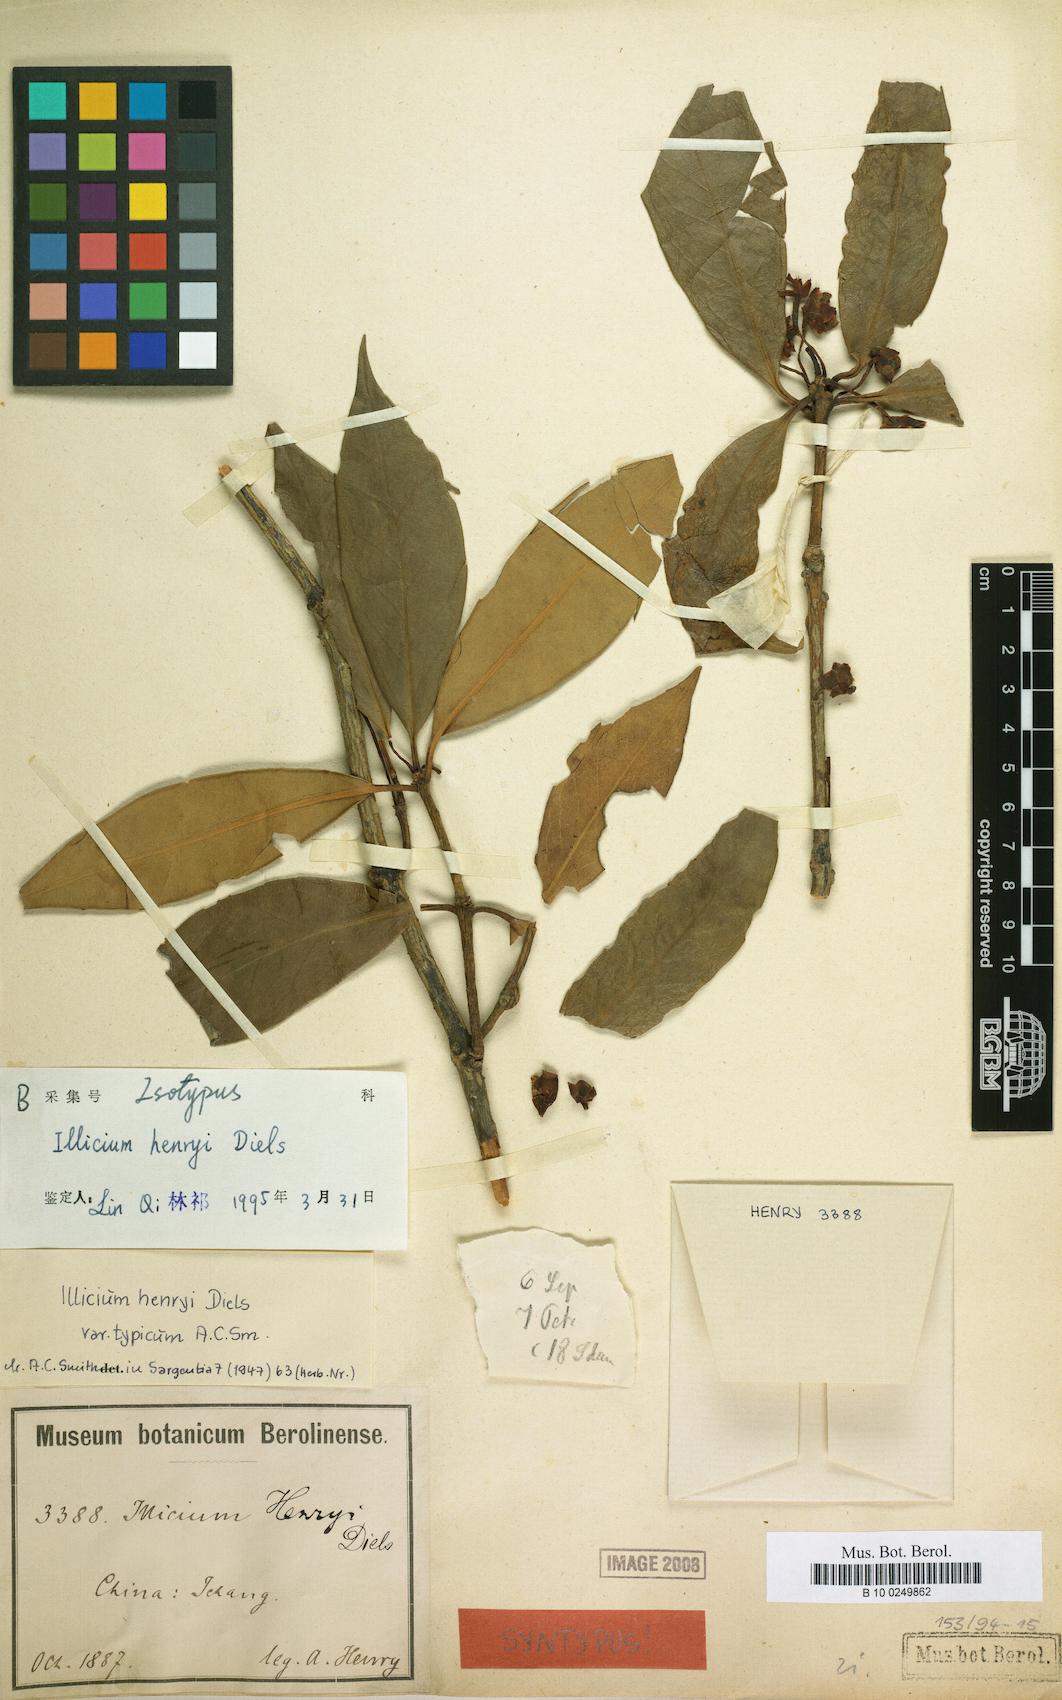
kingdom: Plantae
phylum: Tracheophyta
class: Magnoliopsida
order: Austrobaileyales
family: Schisandraceae
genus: Illicium
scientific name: Illicium henryi
